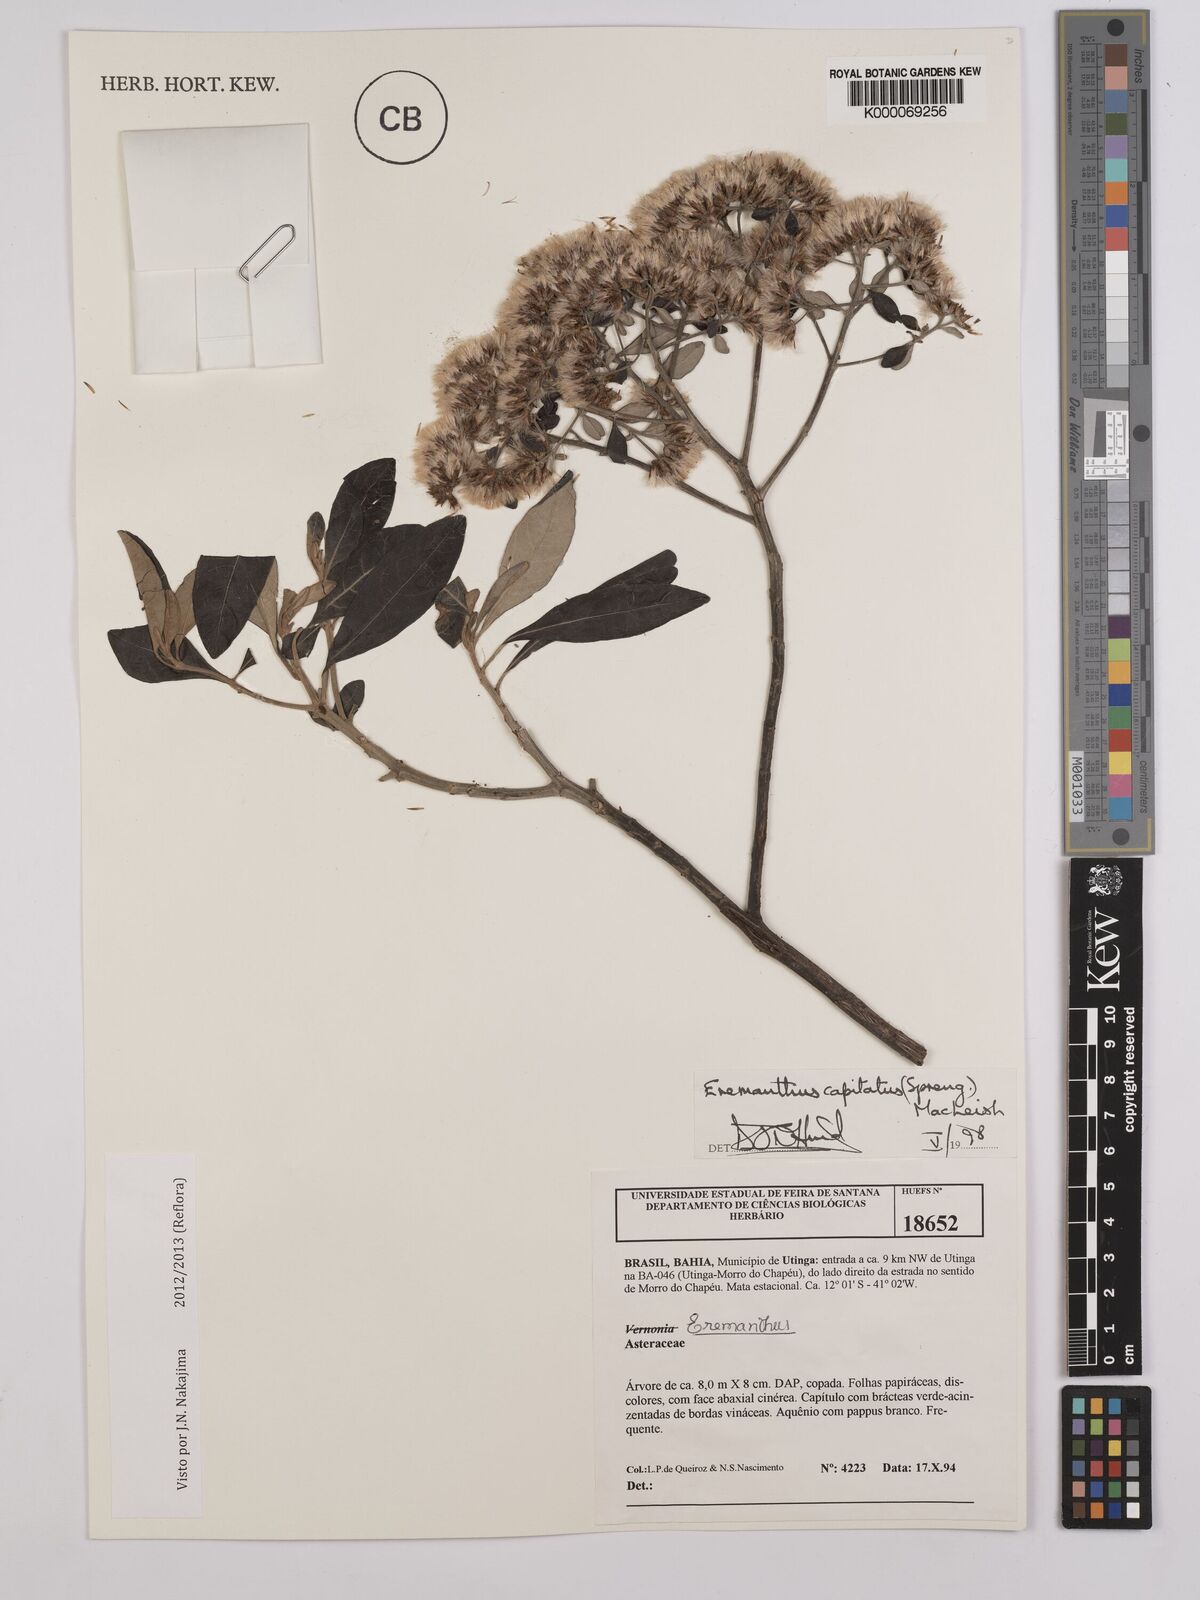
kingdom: Plantae
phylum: Tracheophyta
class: Magnoliopsida
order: Asterales
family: Asteraceae
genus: Eremanthus
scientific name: Eremanthus capitatus
